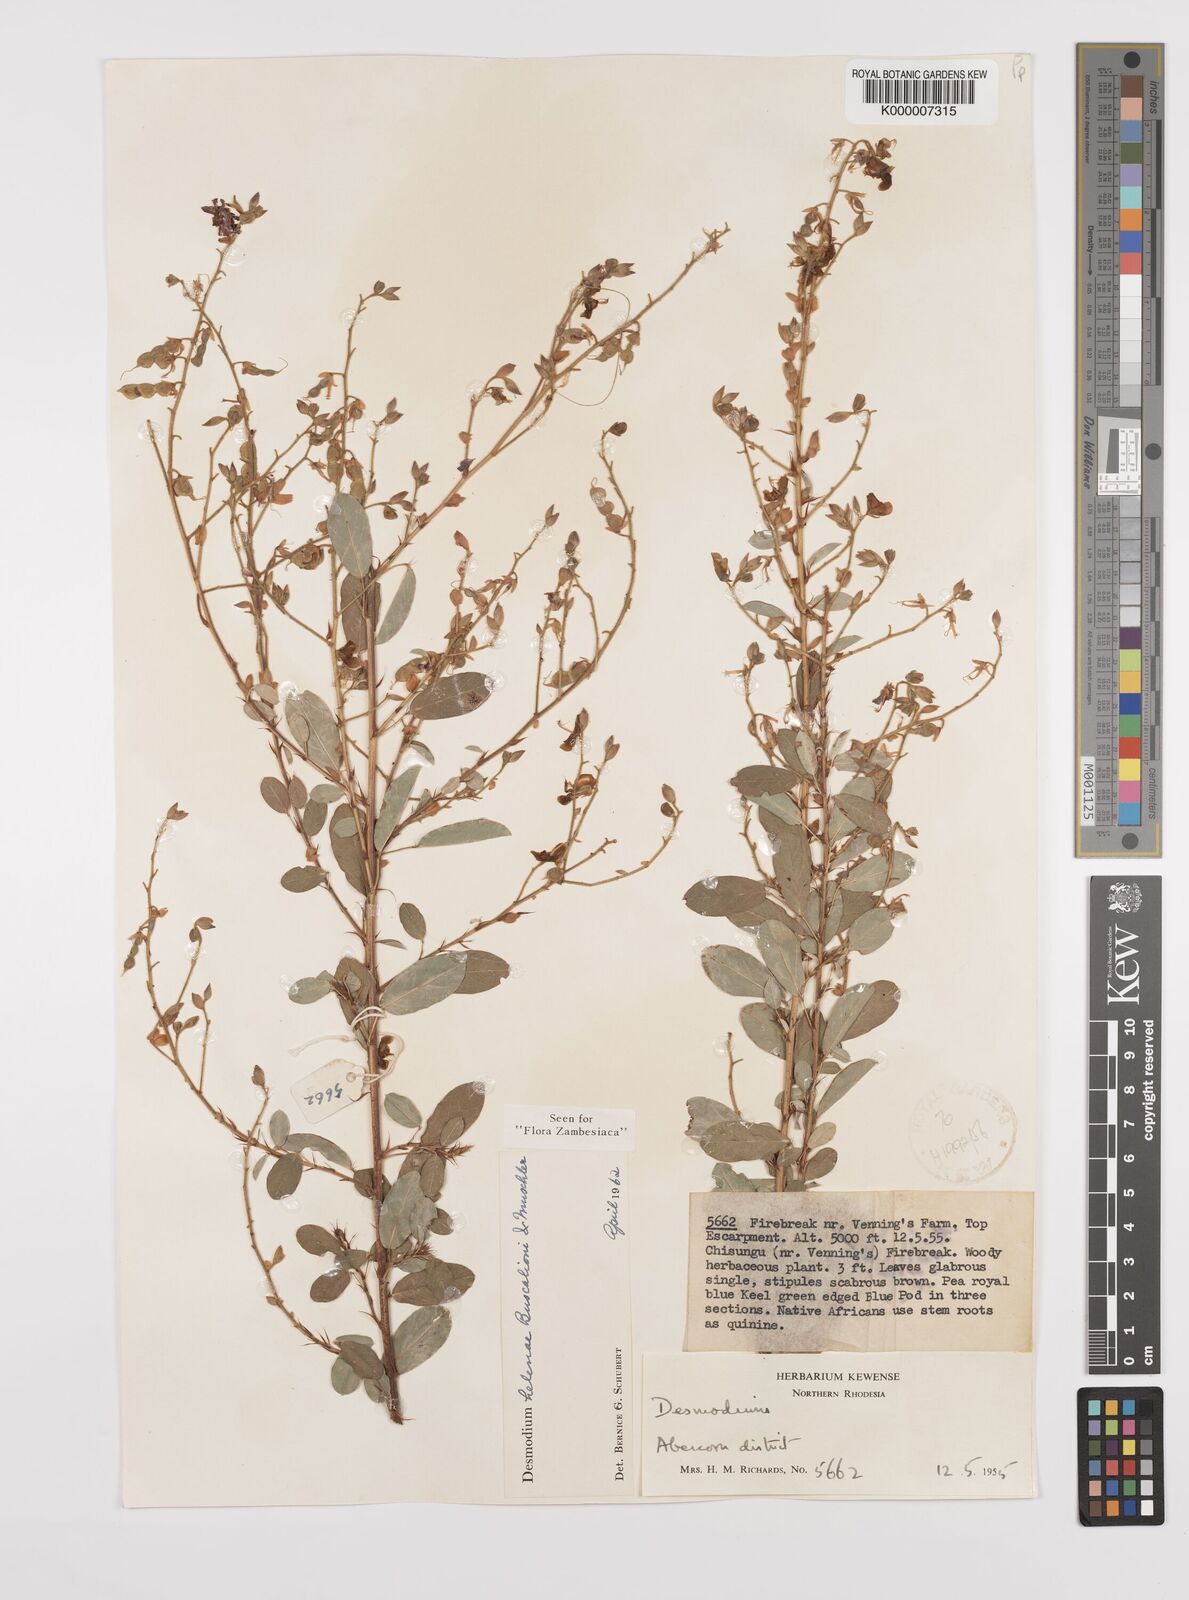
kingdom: Plantae
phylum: Tracheophyta
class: Magnoliopsida
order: Fabales
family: Fabaceae
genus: Grona
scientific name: Grona helenae
